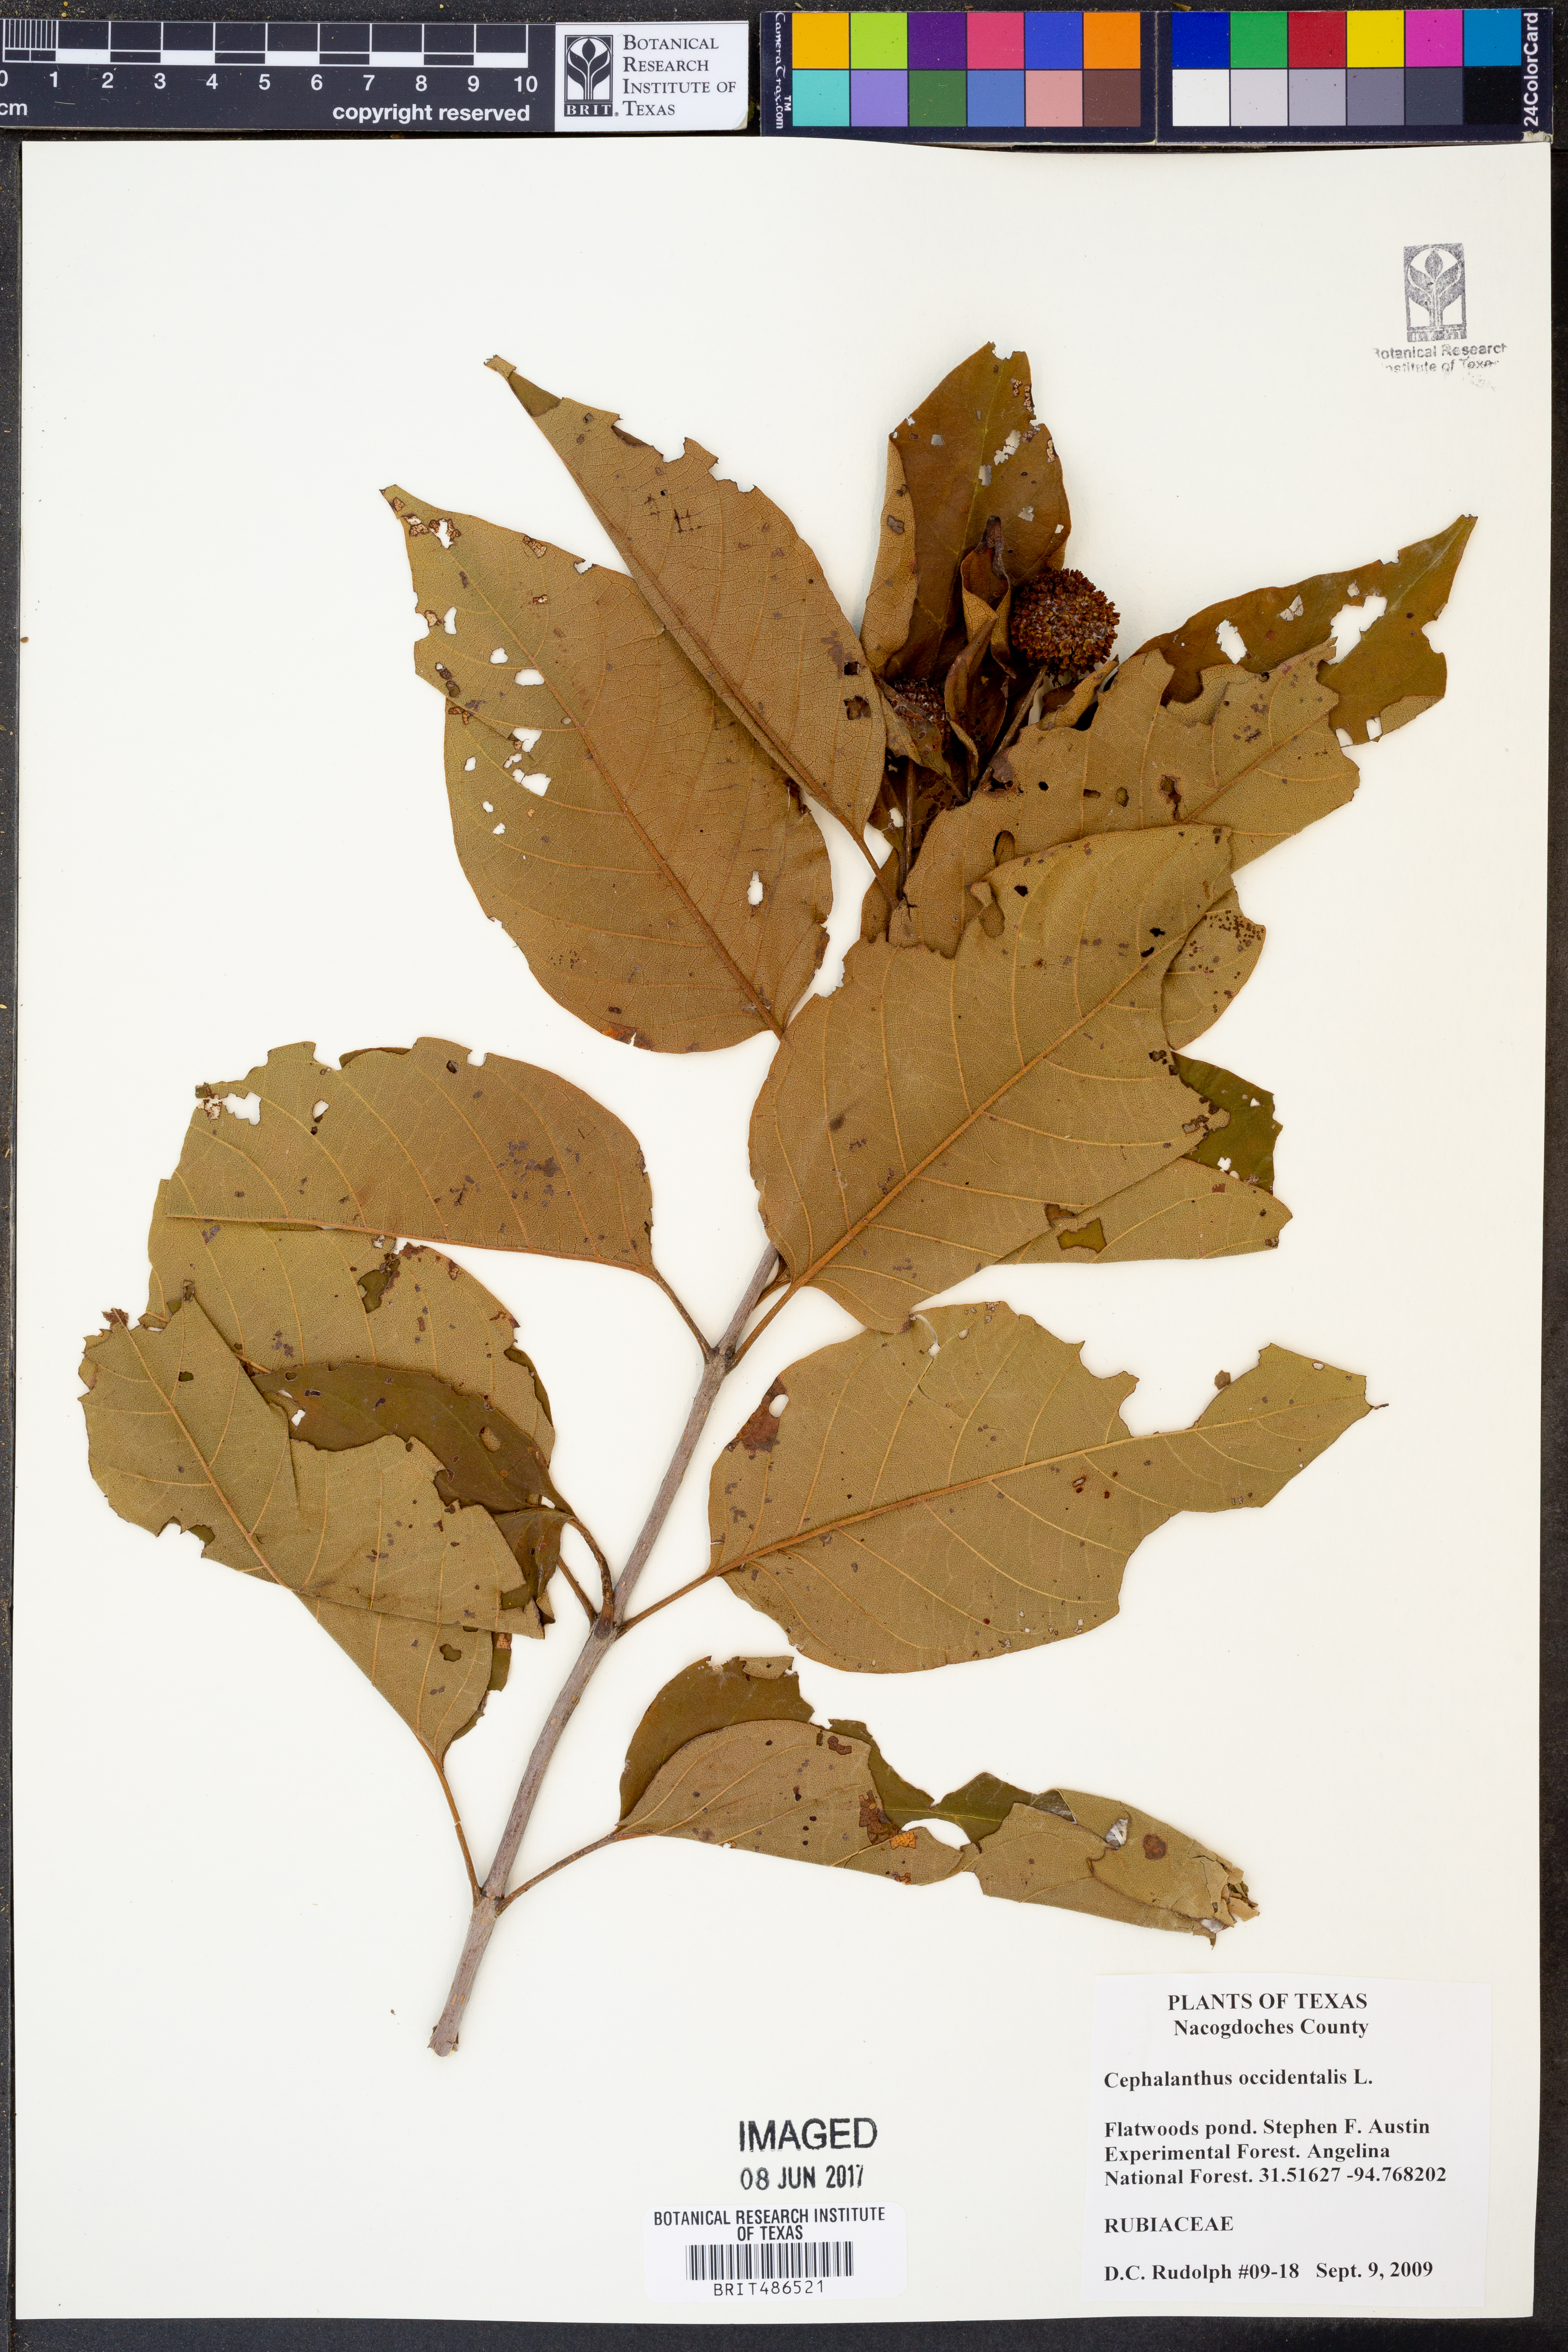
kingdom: Plantae
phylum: Tracheophyta
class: Magnoliopsida
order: Gentianales
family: Rubiaceae
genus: Cephalanthus
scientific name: Cephalanthus occidentalis
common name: Button-willow
